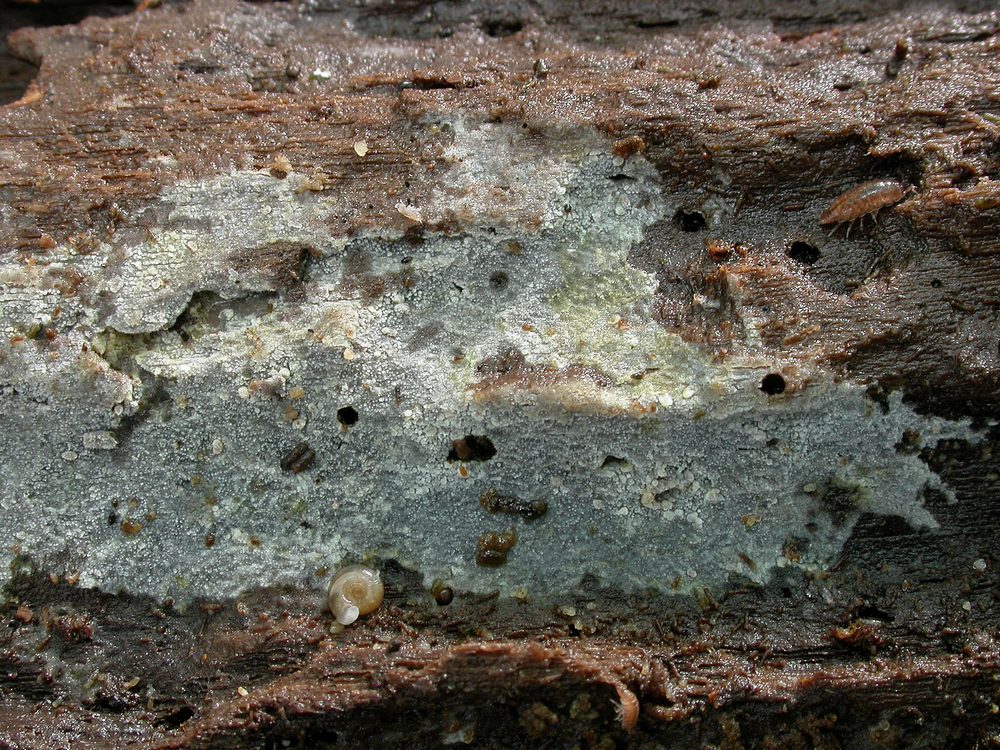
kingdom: Fungi
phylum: Basidiomycota
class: Agaricomycetes
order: Polyporales
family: Meruliaceae
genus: Scopuloides
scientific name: Scopuloides rimosa
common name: dughinde
